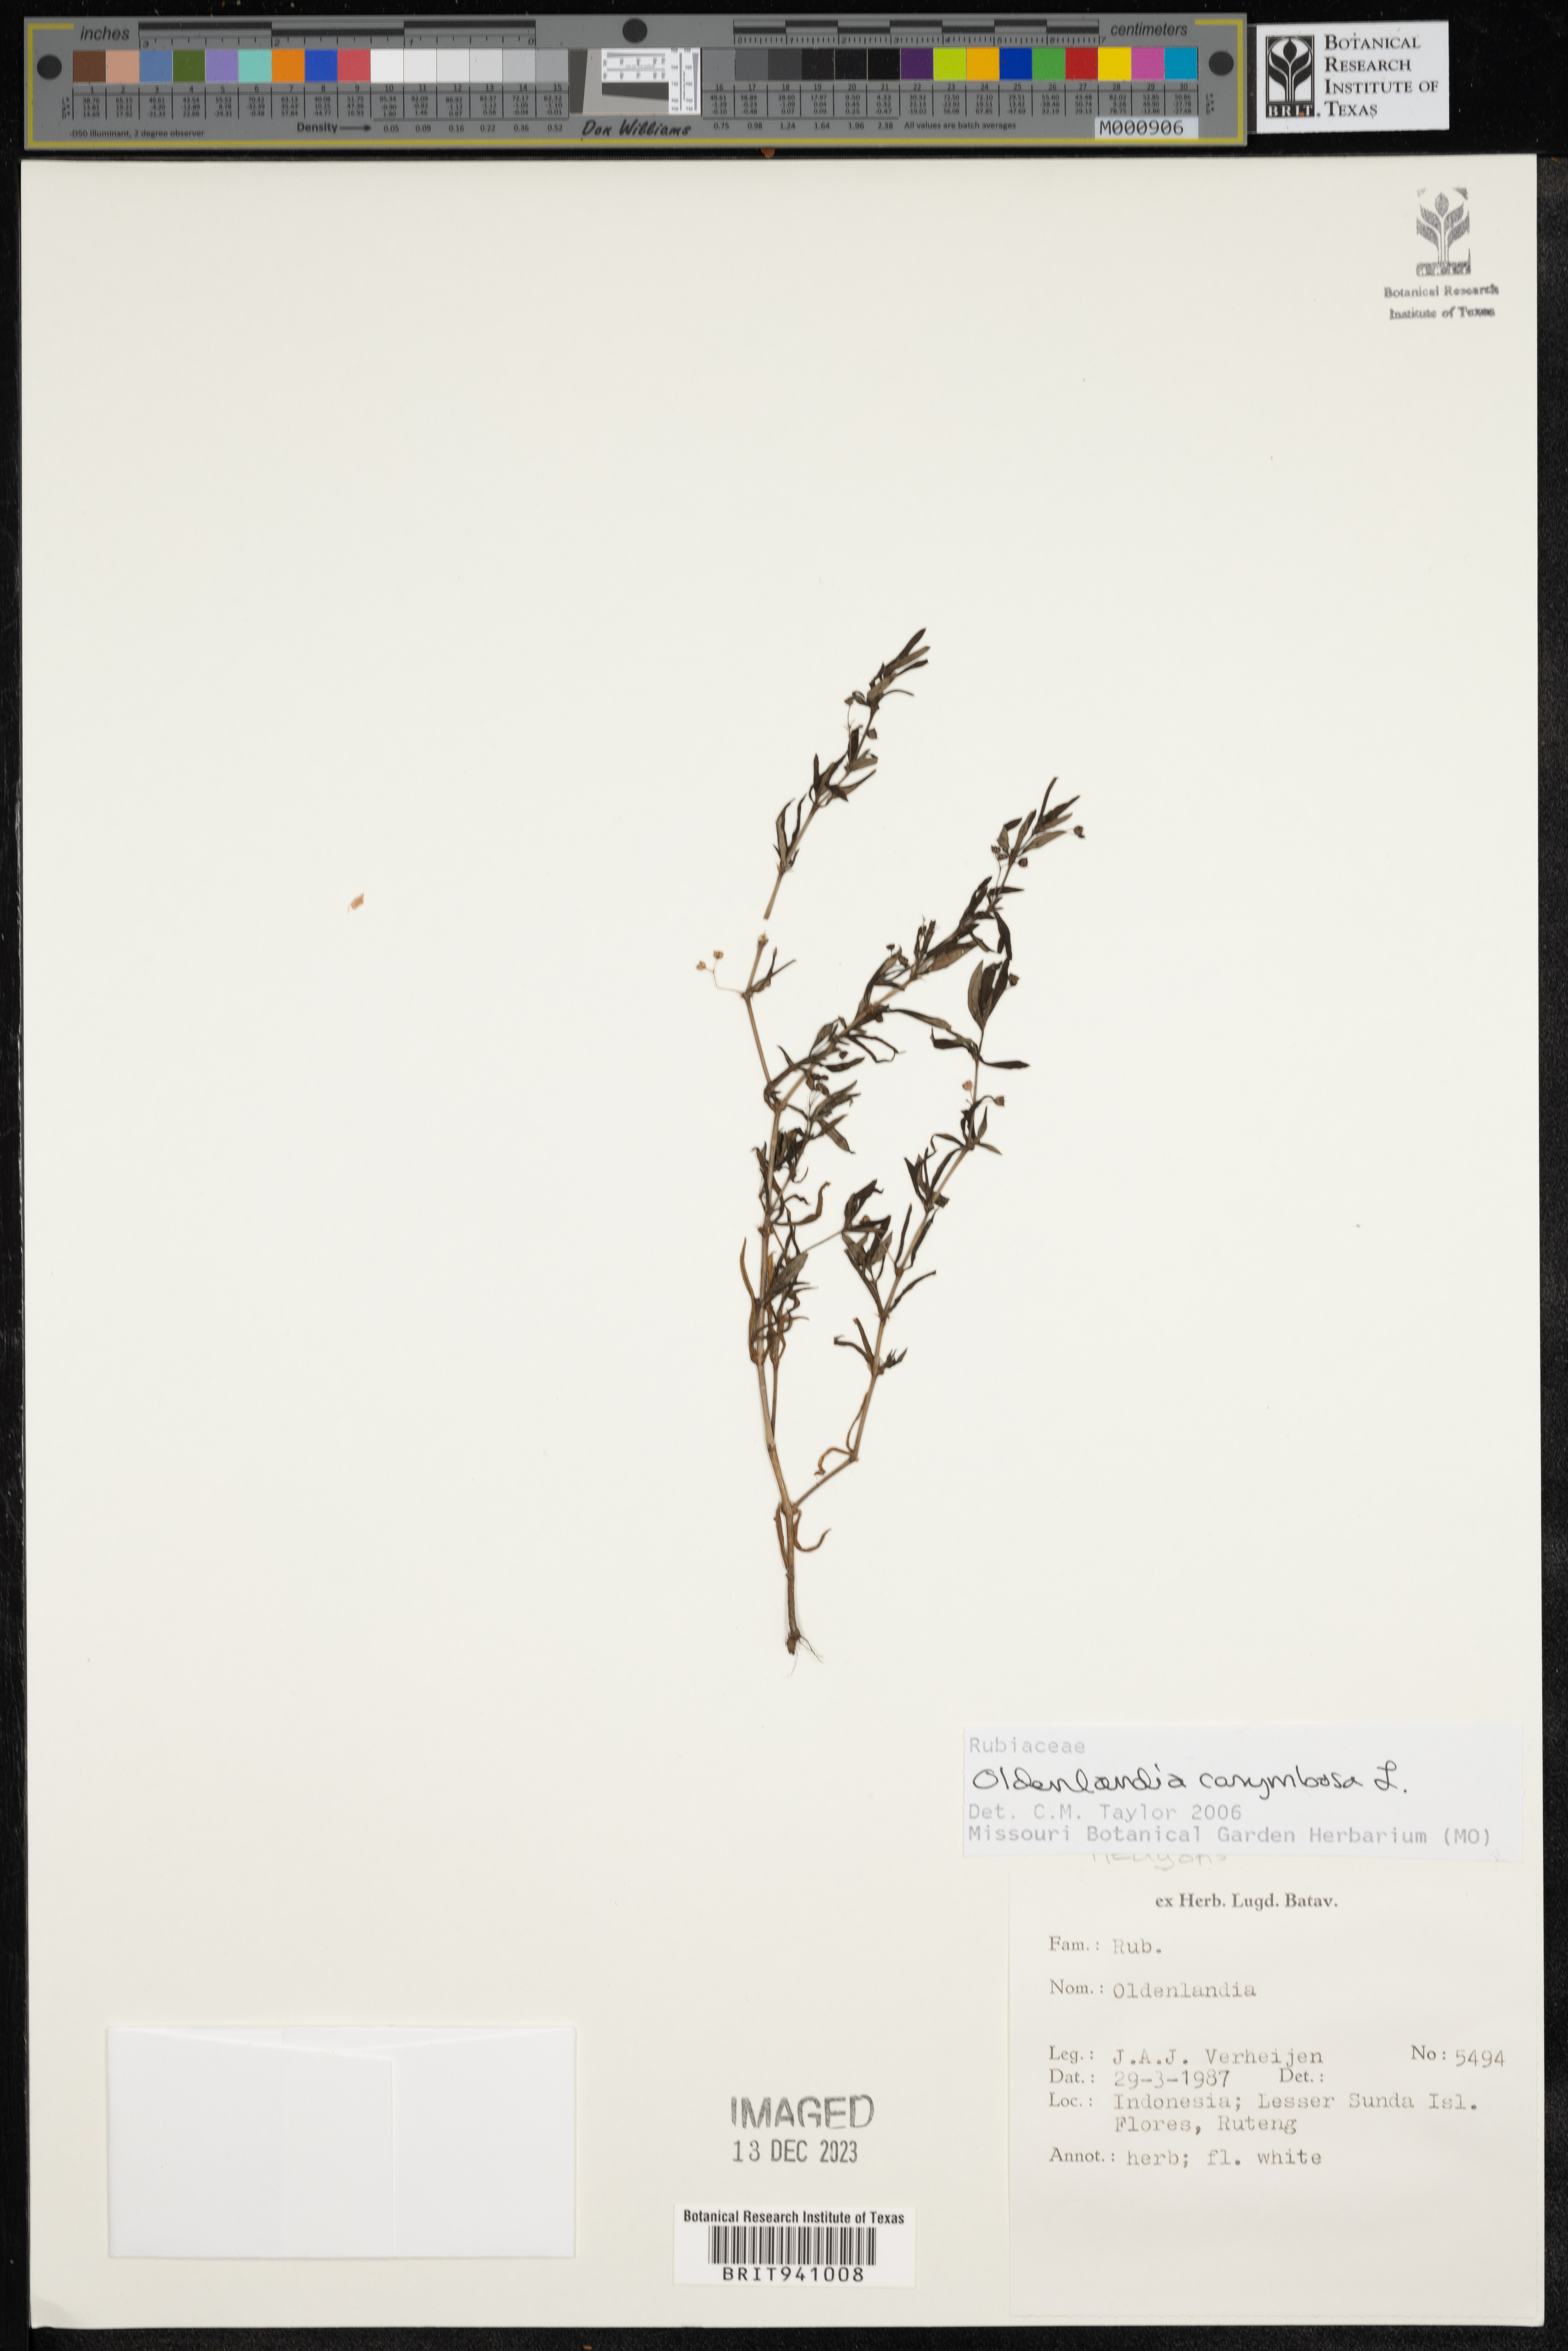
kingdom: Plantae
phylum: Tracheophyta
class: Magnoliopsida
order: Gentianales
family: Rubiaceae
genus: Oldenlandia
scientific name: Oldenlandia
